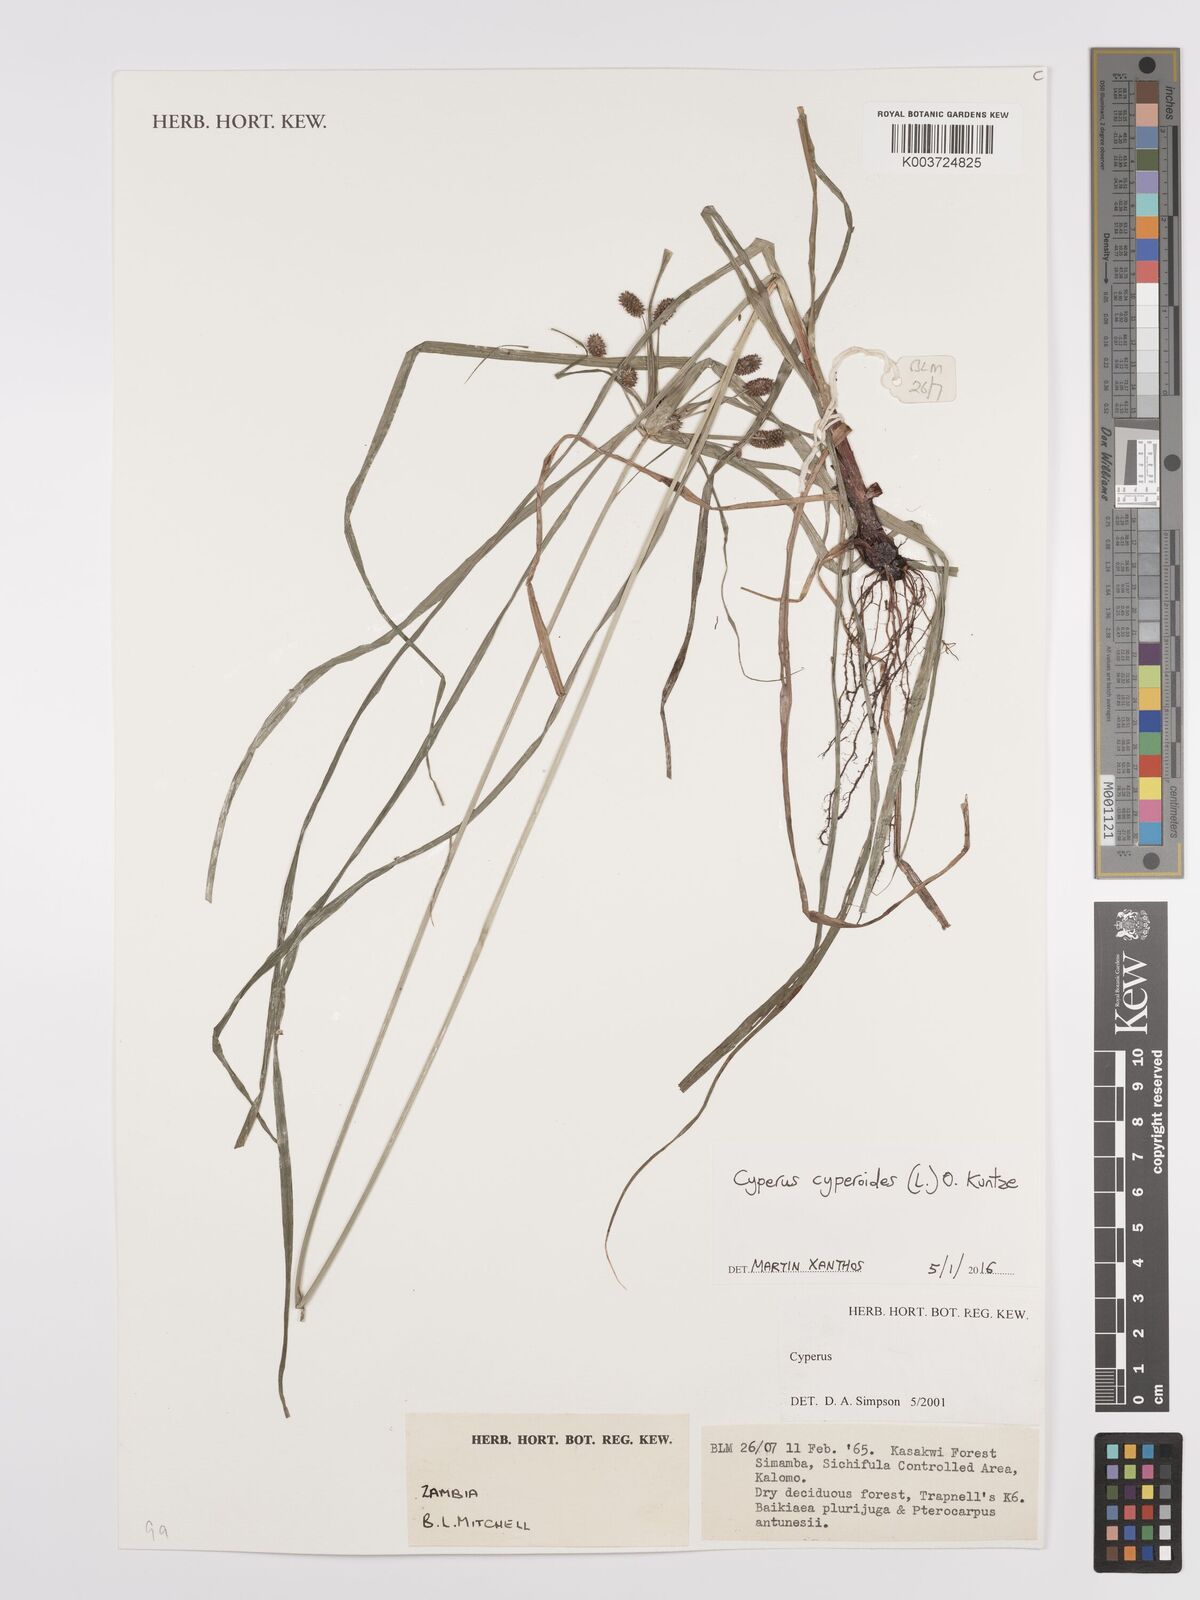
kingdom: Plantae
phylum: Tracheophyta
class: Liliopsida
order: Poales
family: Cyperaceae
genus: Cyperus
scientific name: Cyperus cyperoides
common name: Pacific island flat sedge
